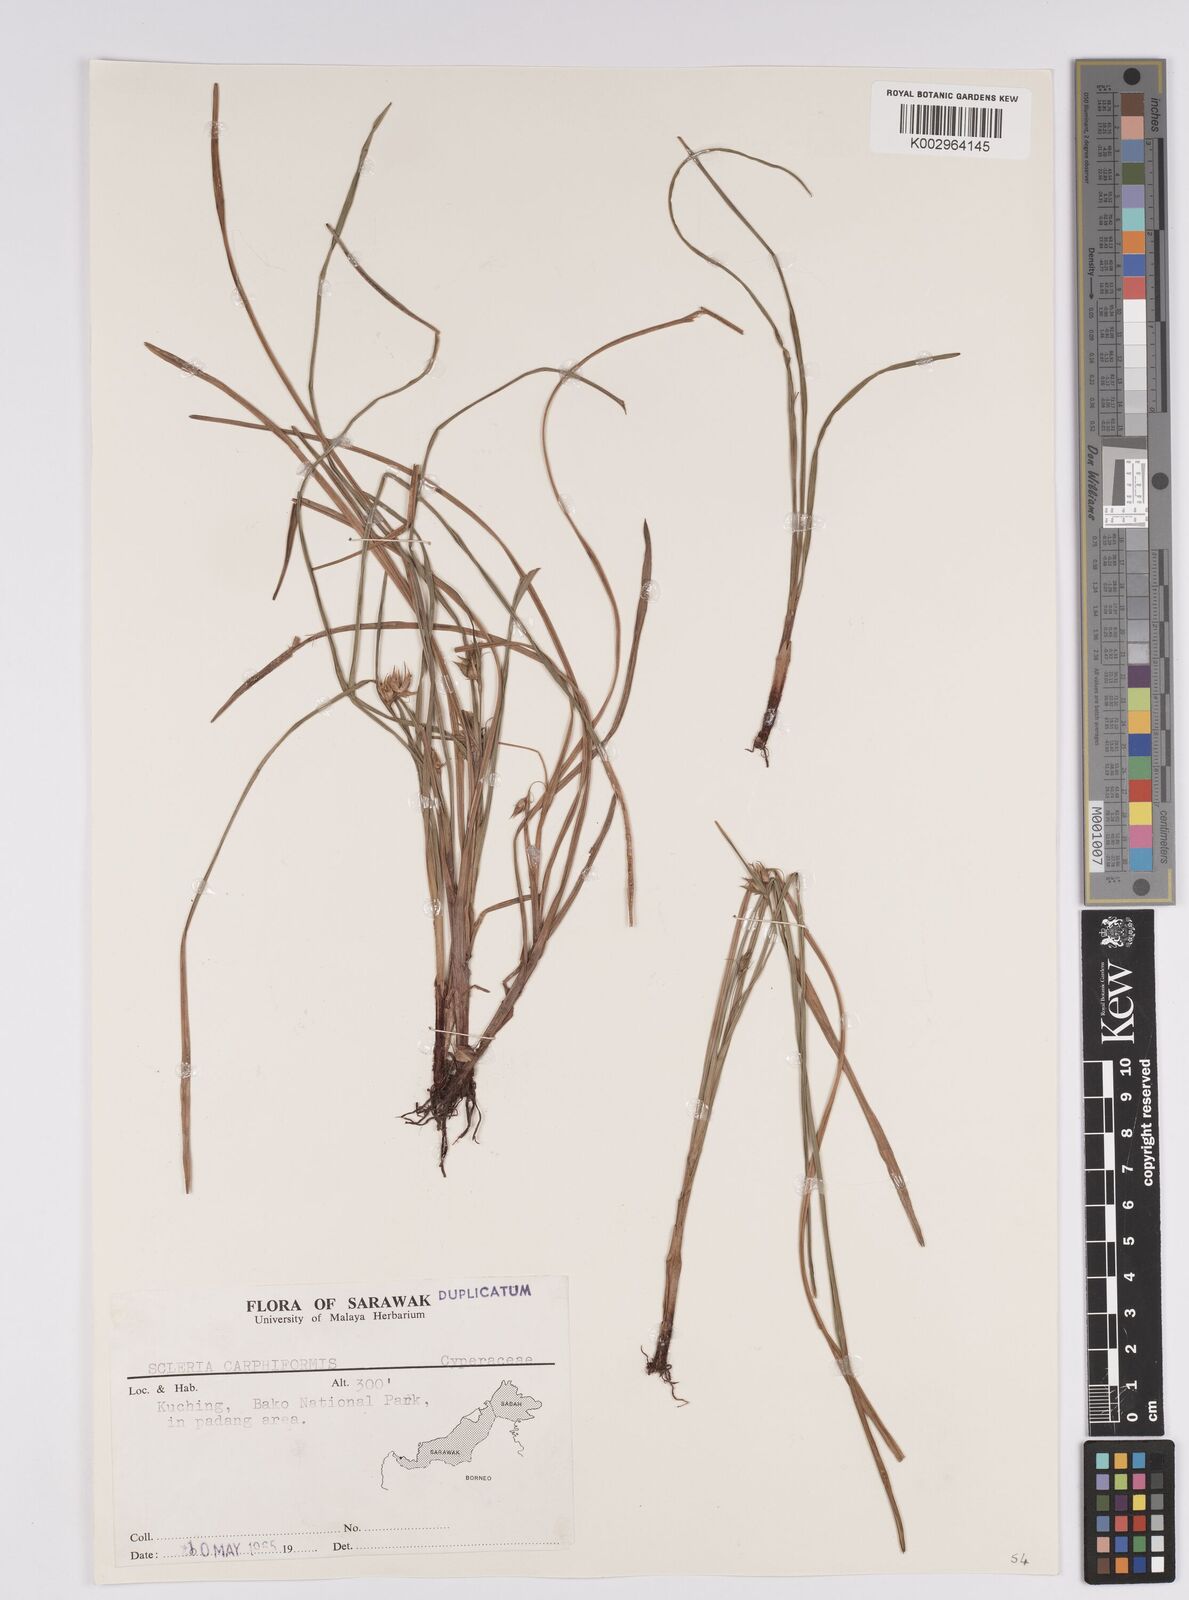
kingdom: Plantae
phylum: Tracheophyta
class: Liliopsida
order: Poales
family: Cyperaceae
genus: Scleria
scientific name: Scleria carphiformis
